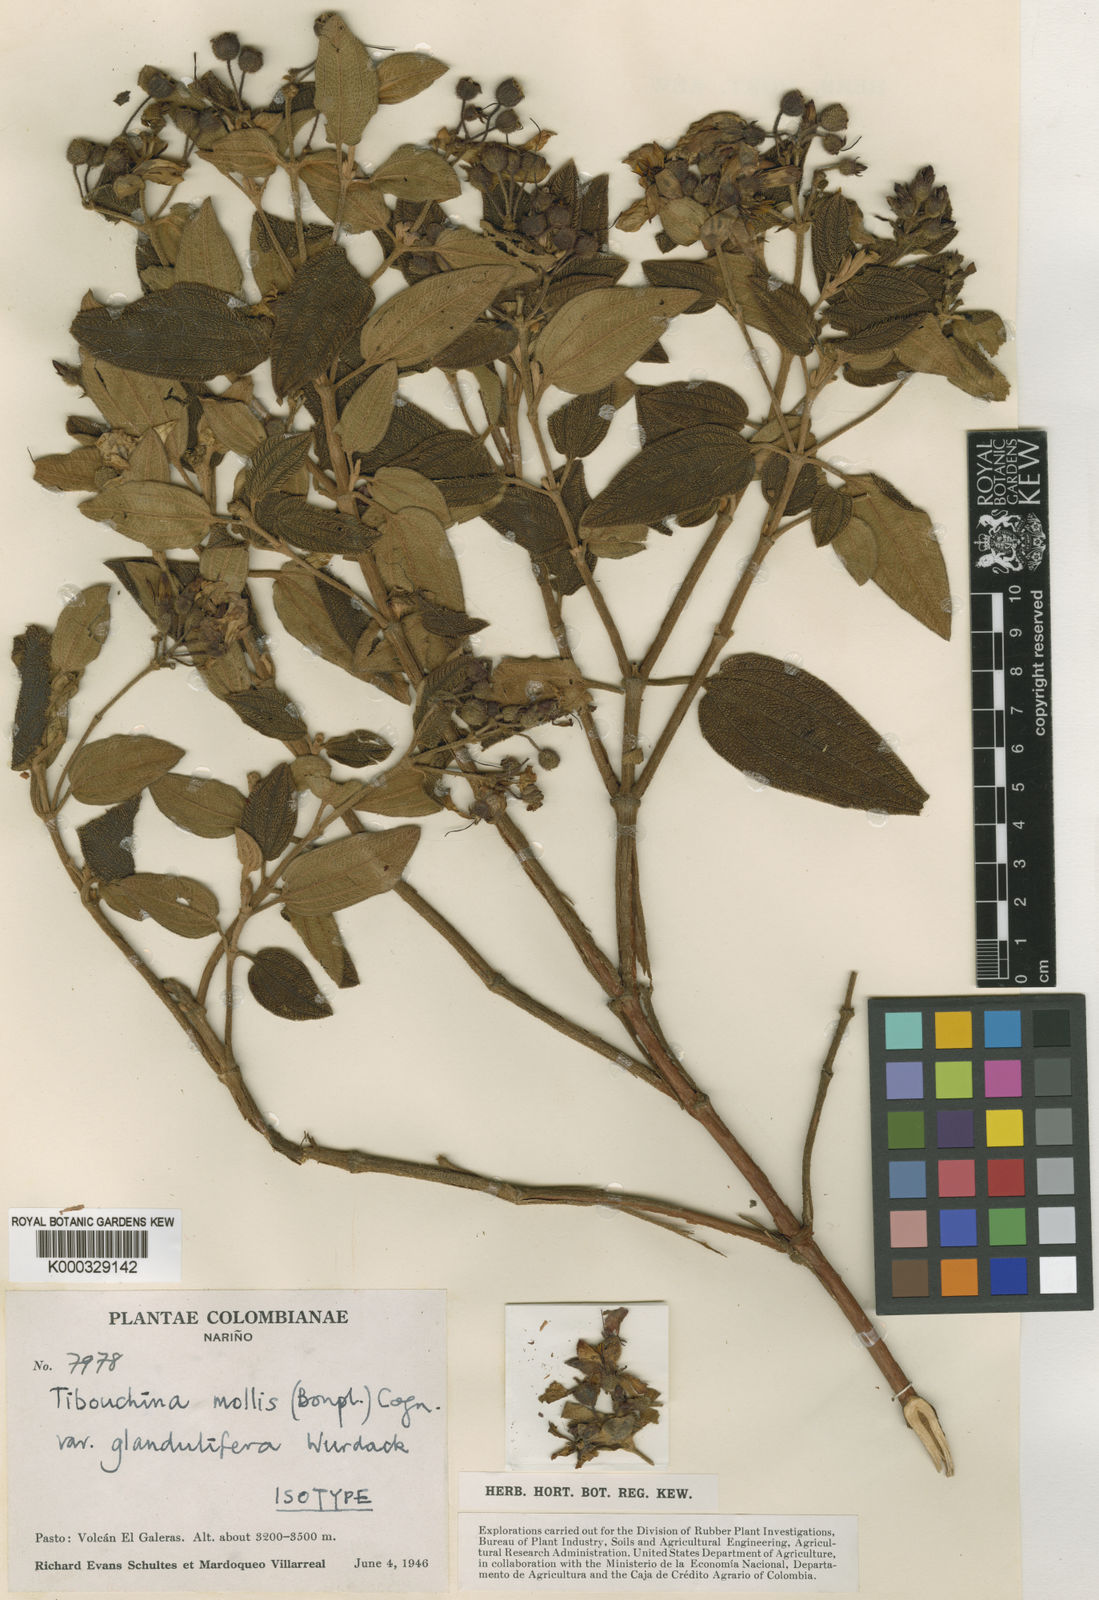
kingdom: Plantae
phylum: Tracheophyta
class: Magnoliopsida
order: Myrtales
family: Melastomataceae
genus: Chaetogastra
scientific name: Chaetogastra mollis
